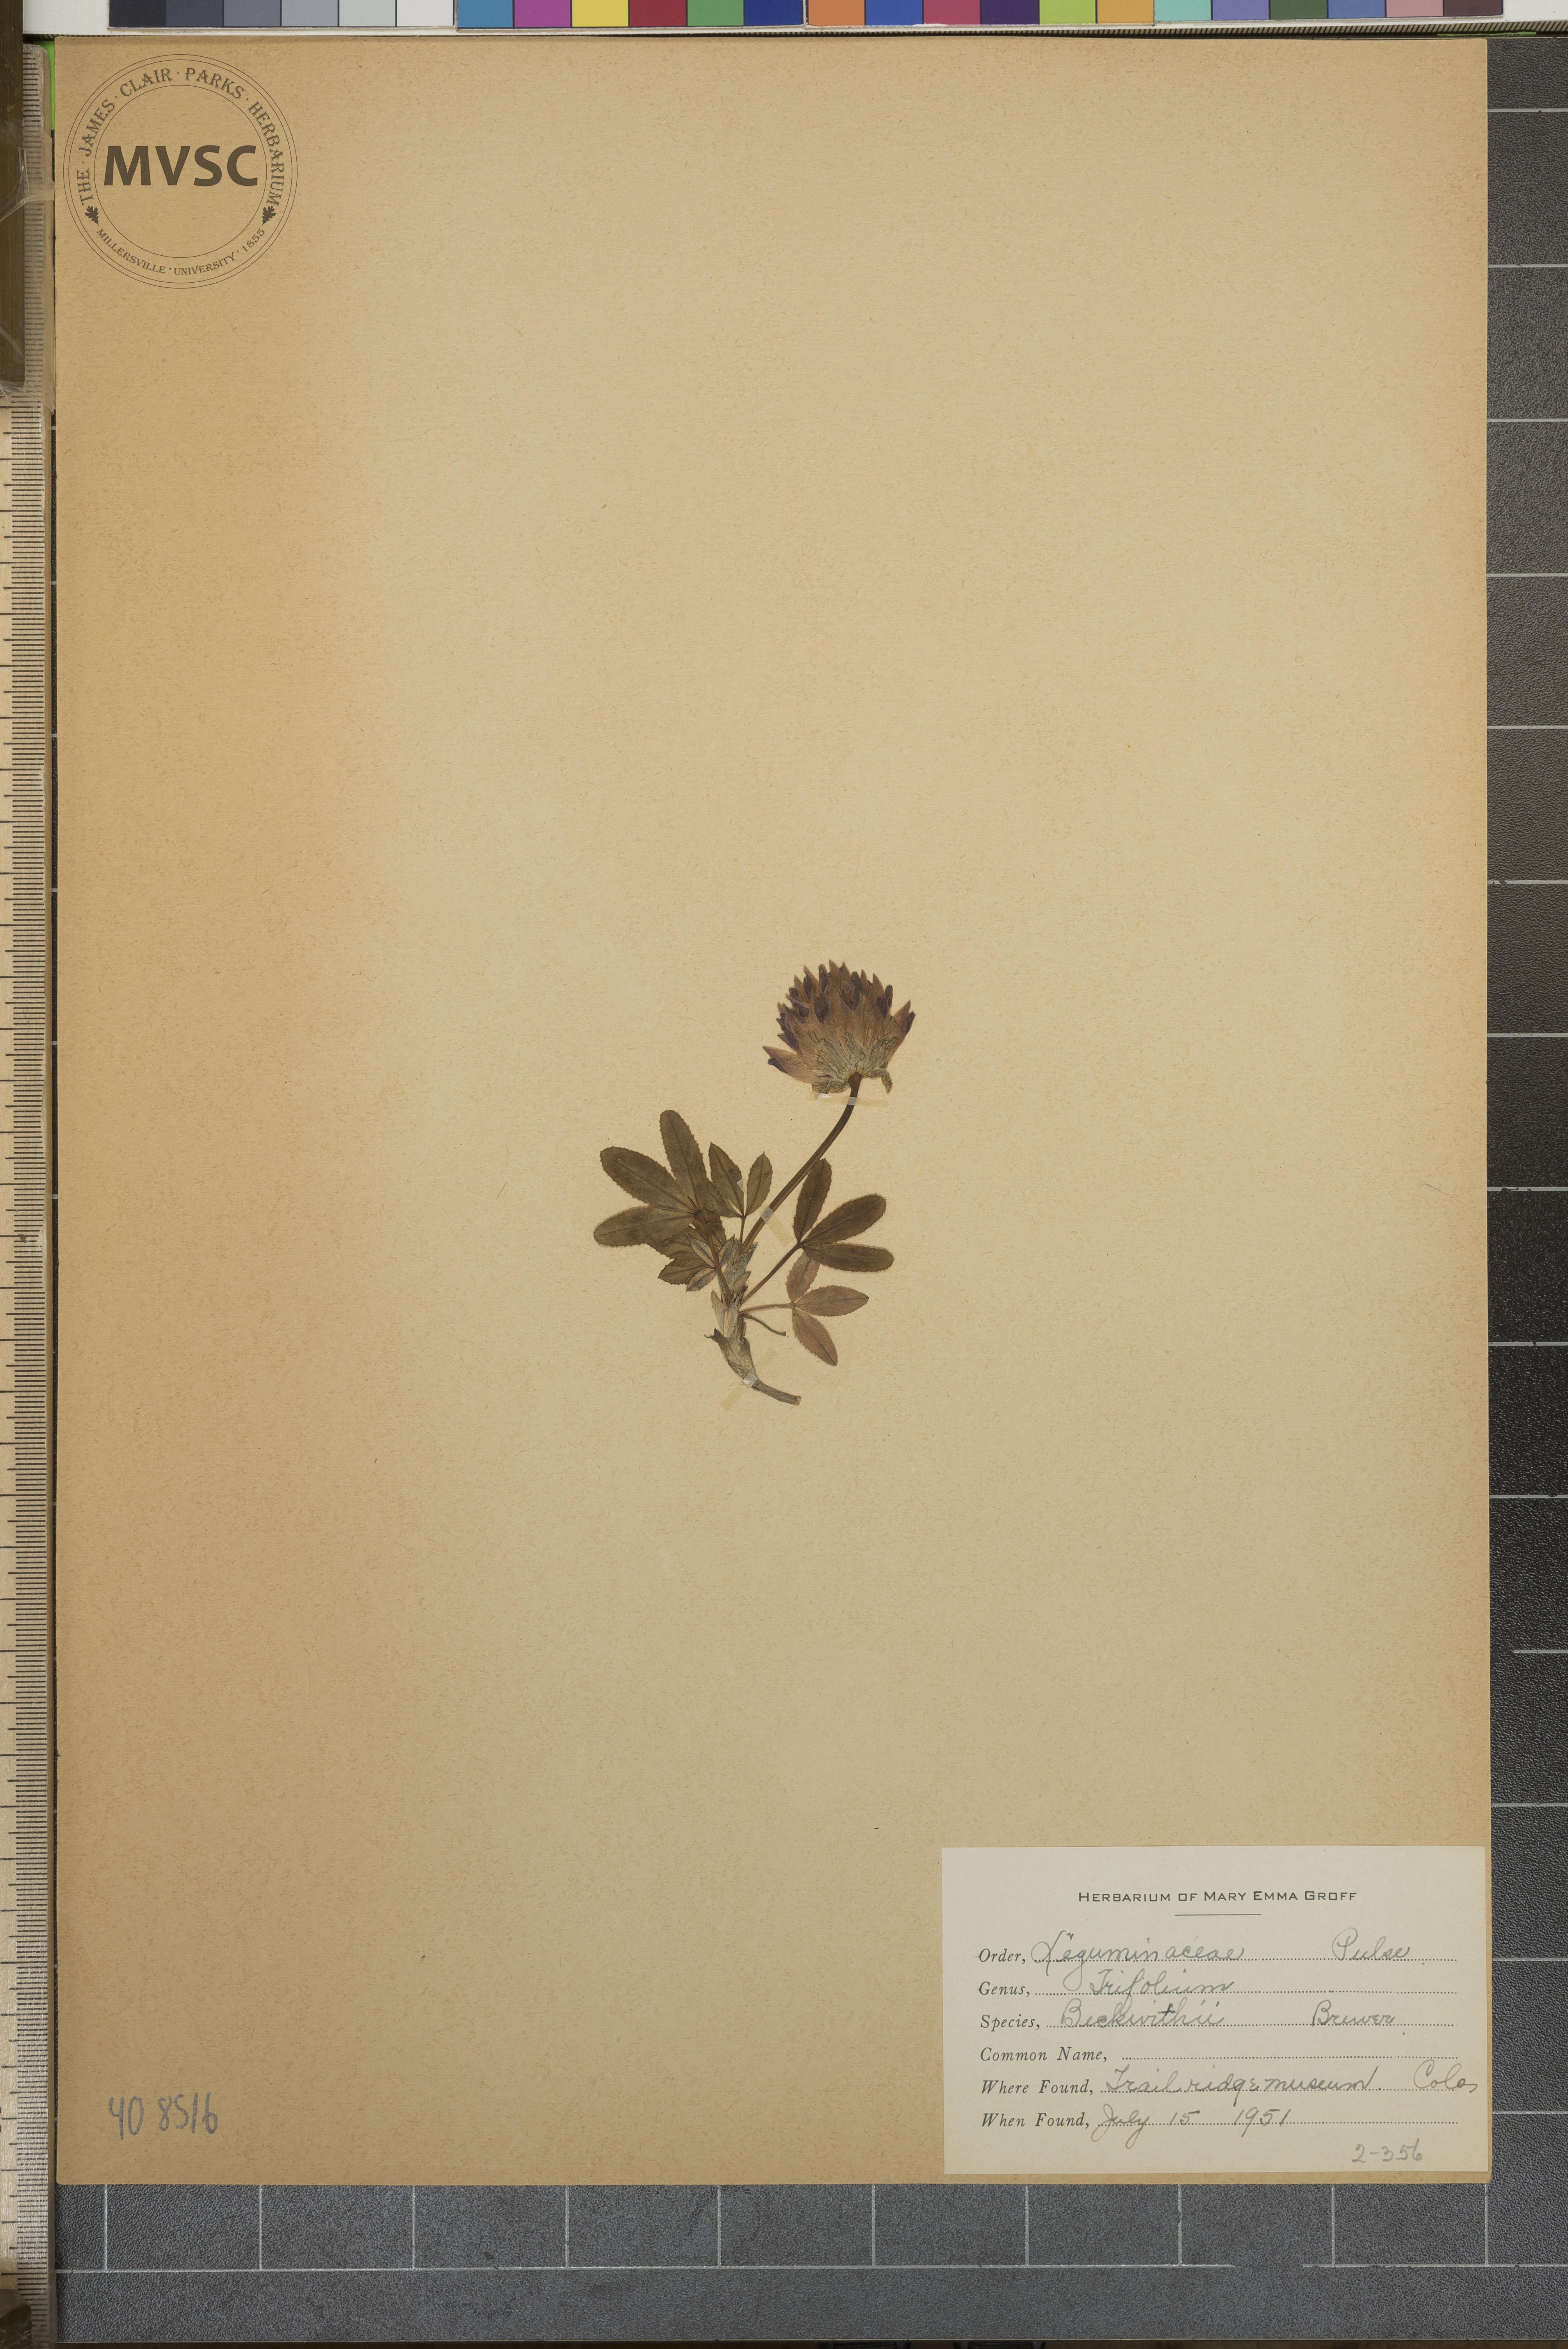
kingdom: Plantae
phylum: Tracheophyta
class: Magnoliopsida
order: Fabales
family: Fabaceae
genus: Trifolium
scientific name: Trifolium beckwithii
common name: Beckwith's clover
